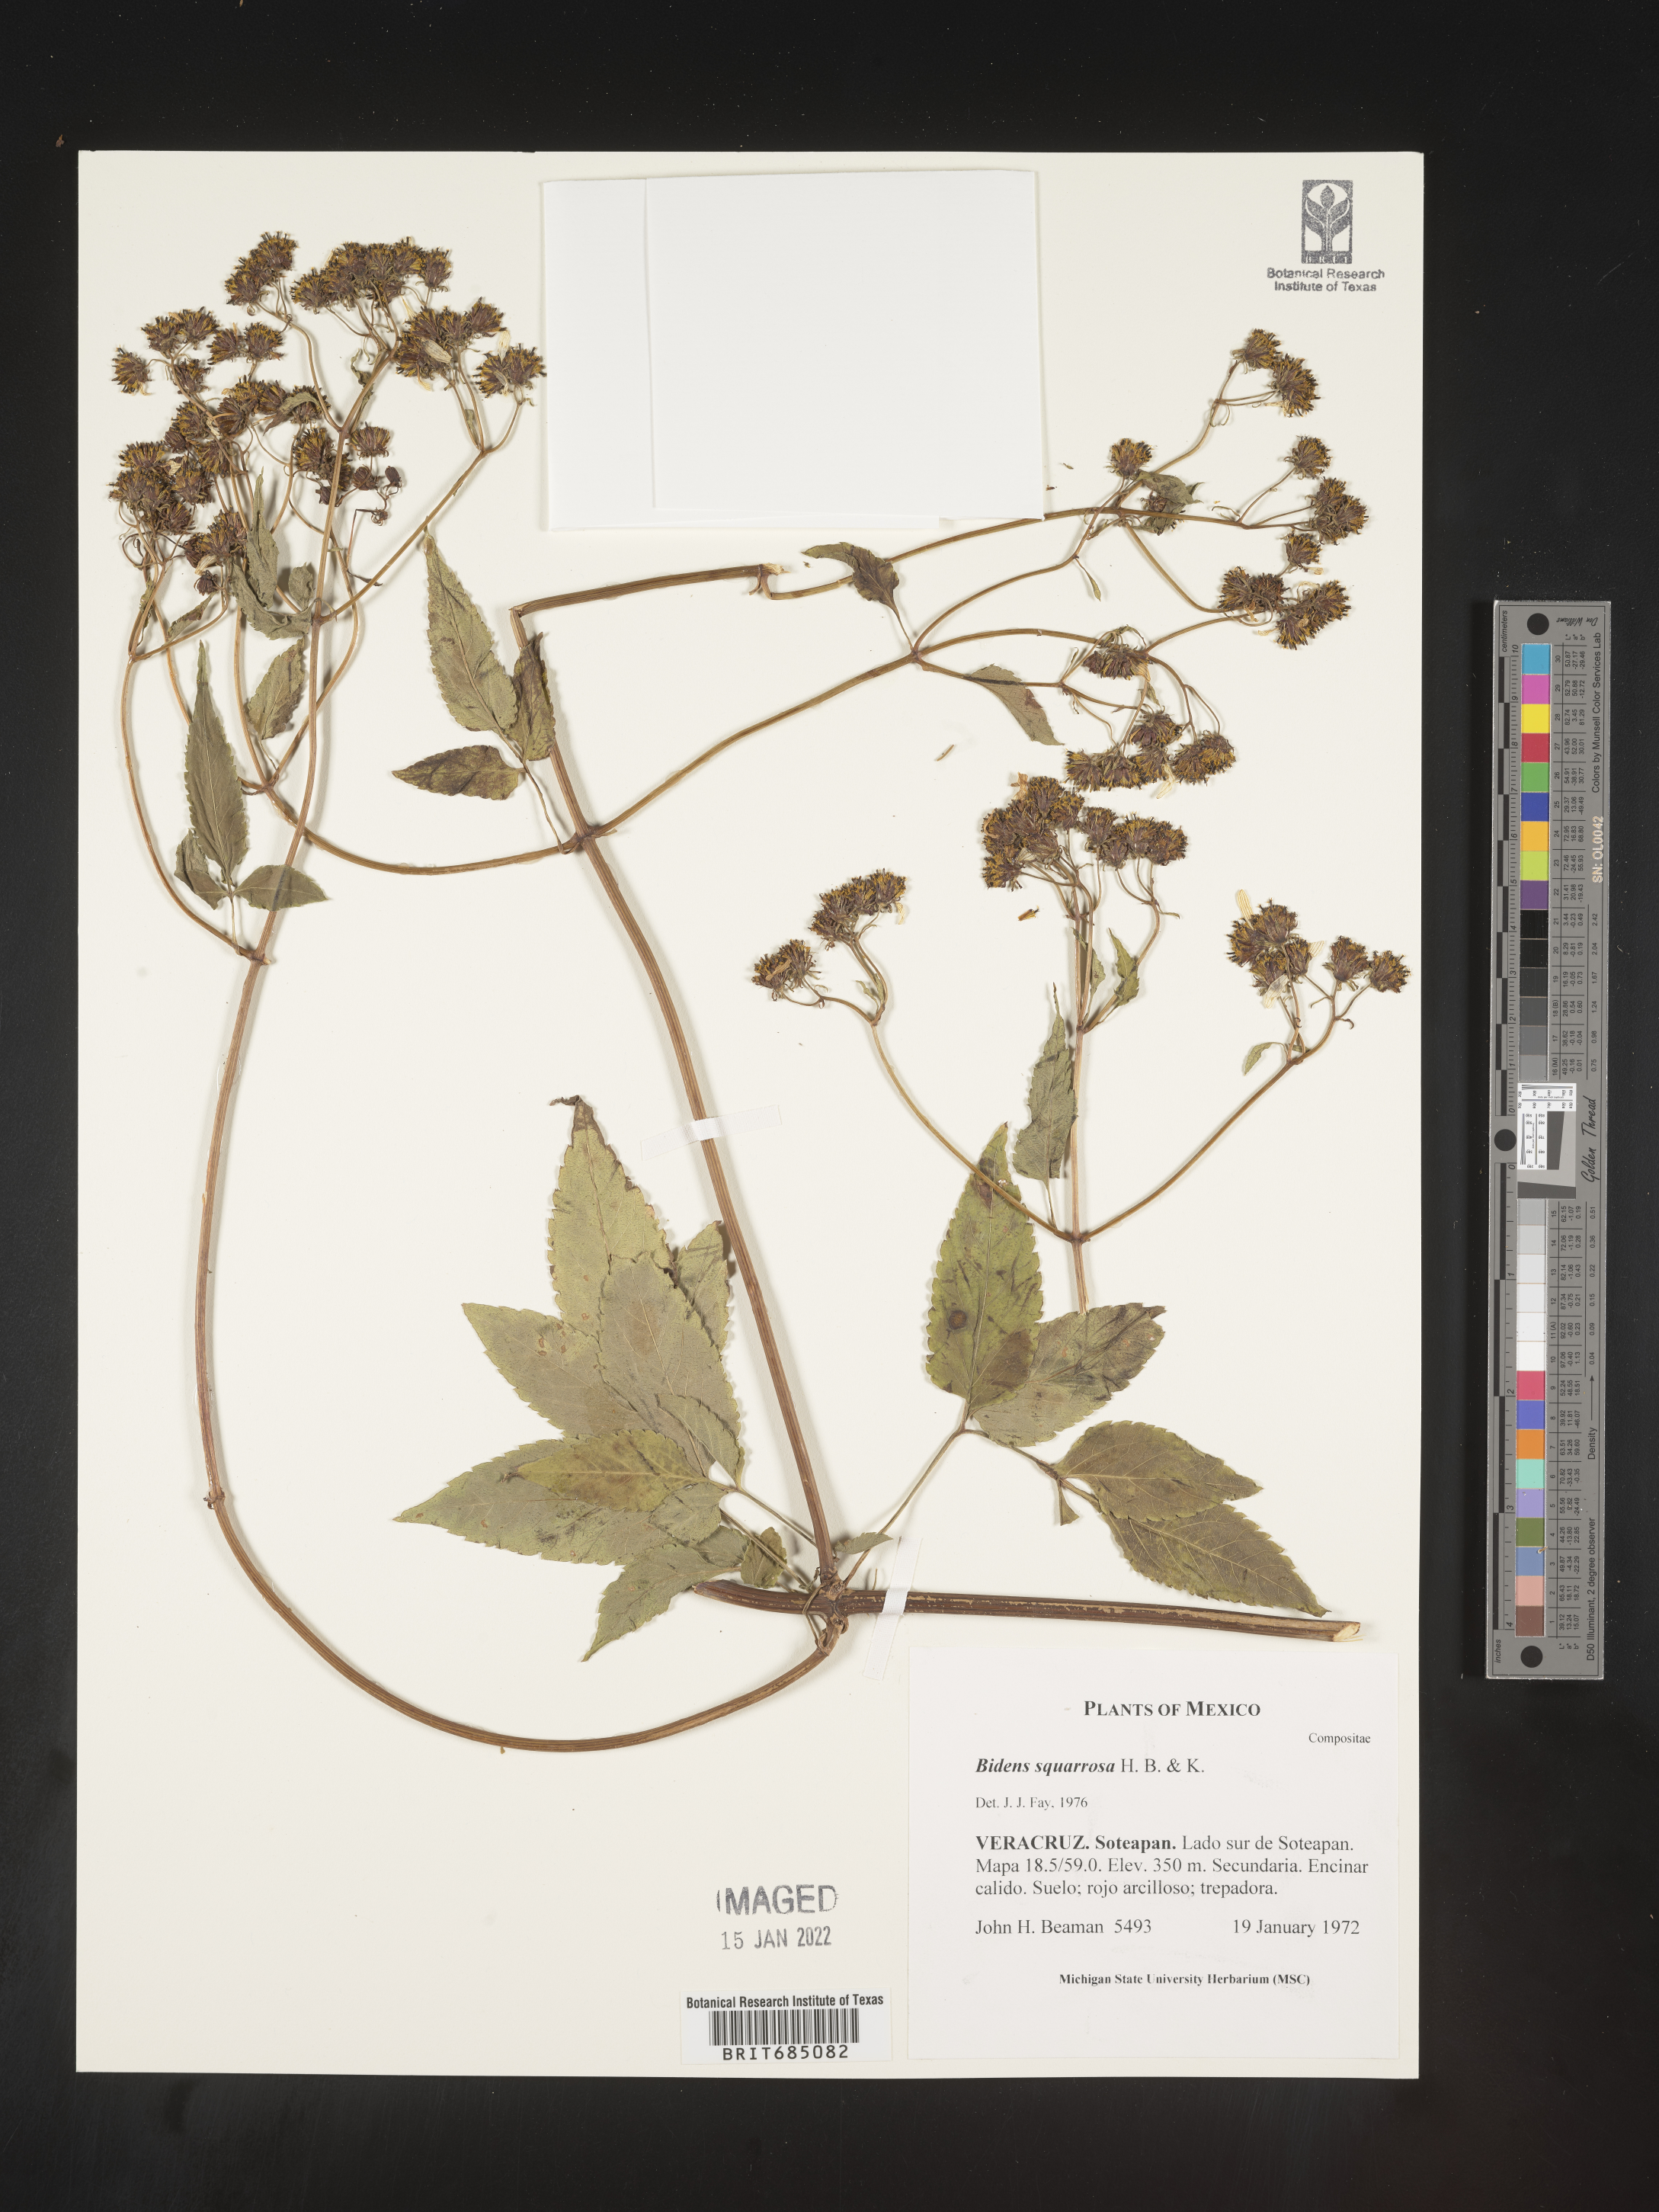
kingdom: Plantae
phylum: Tracheophyta
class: Magnoliopsida
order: Asterales
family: Asteraceae
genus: Bidens
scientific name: Bidens rubicundula
